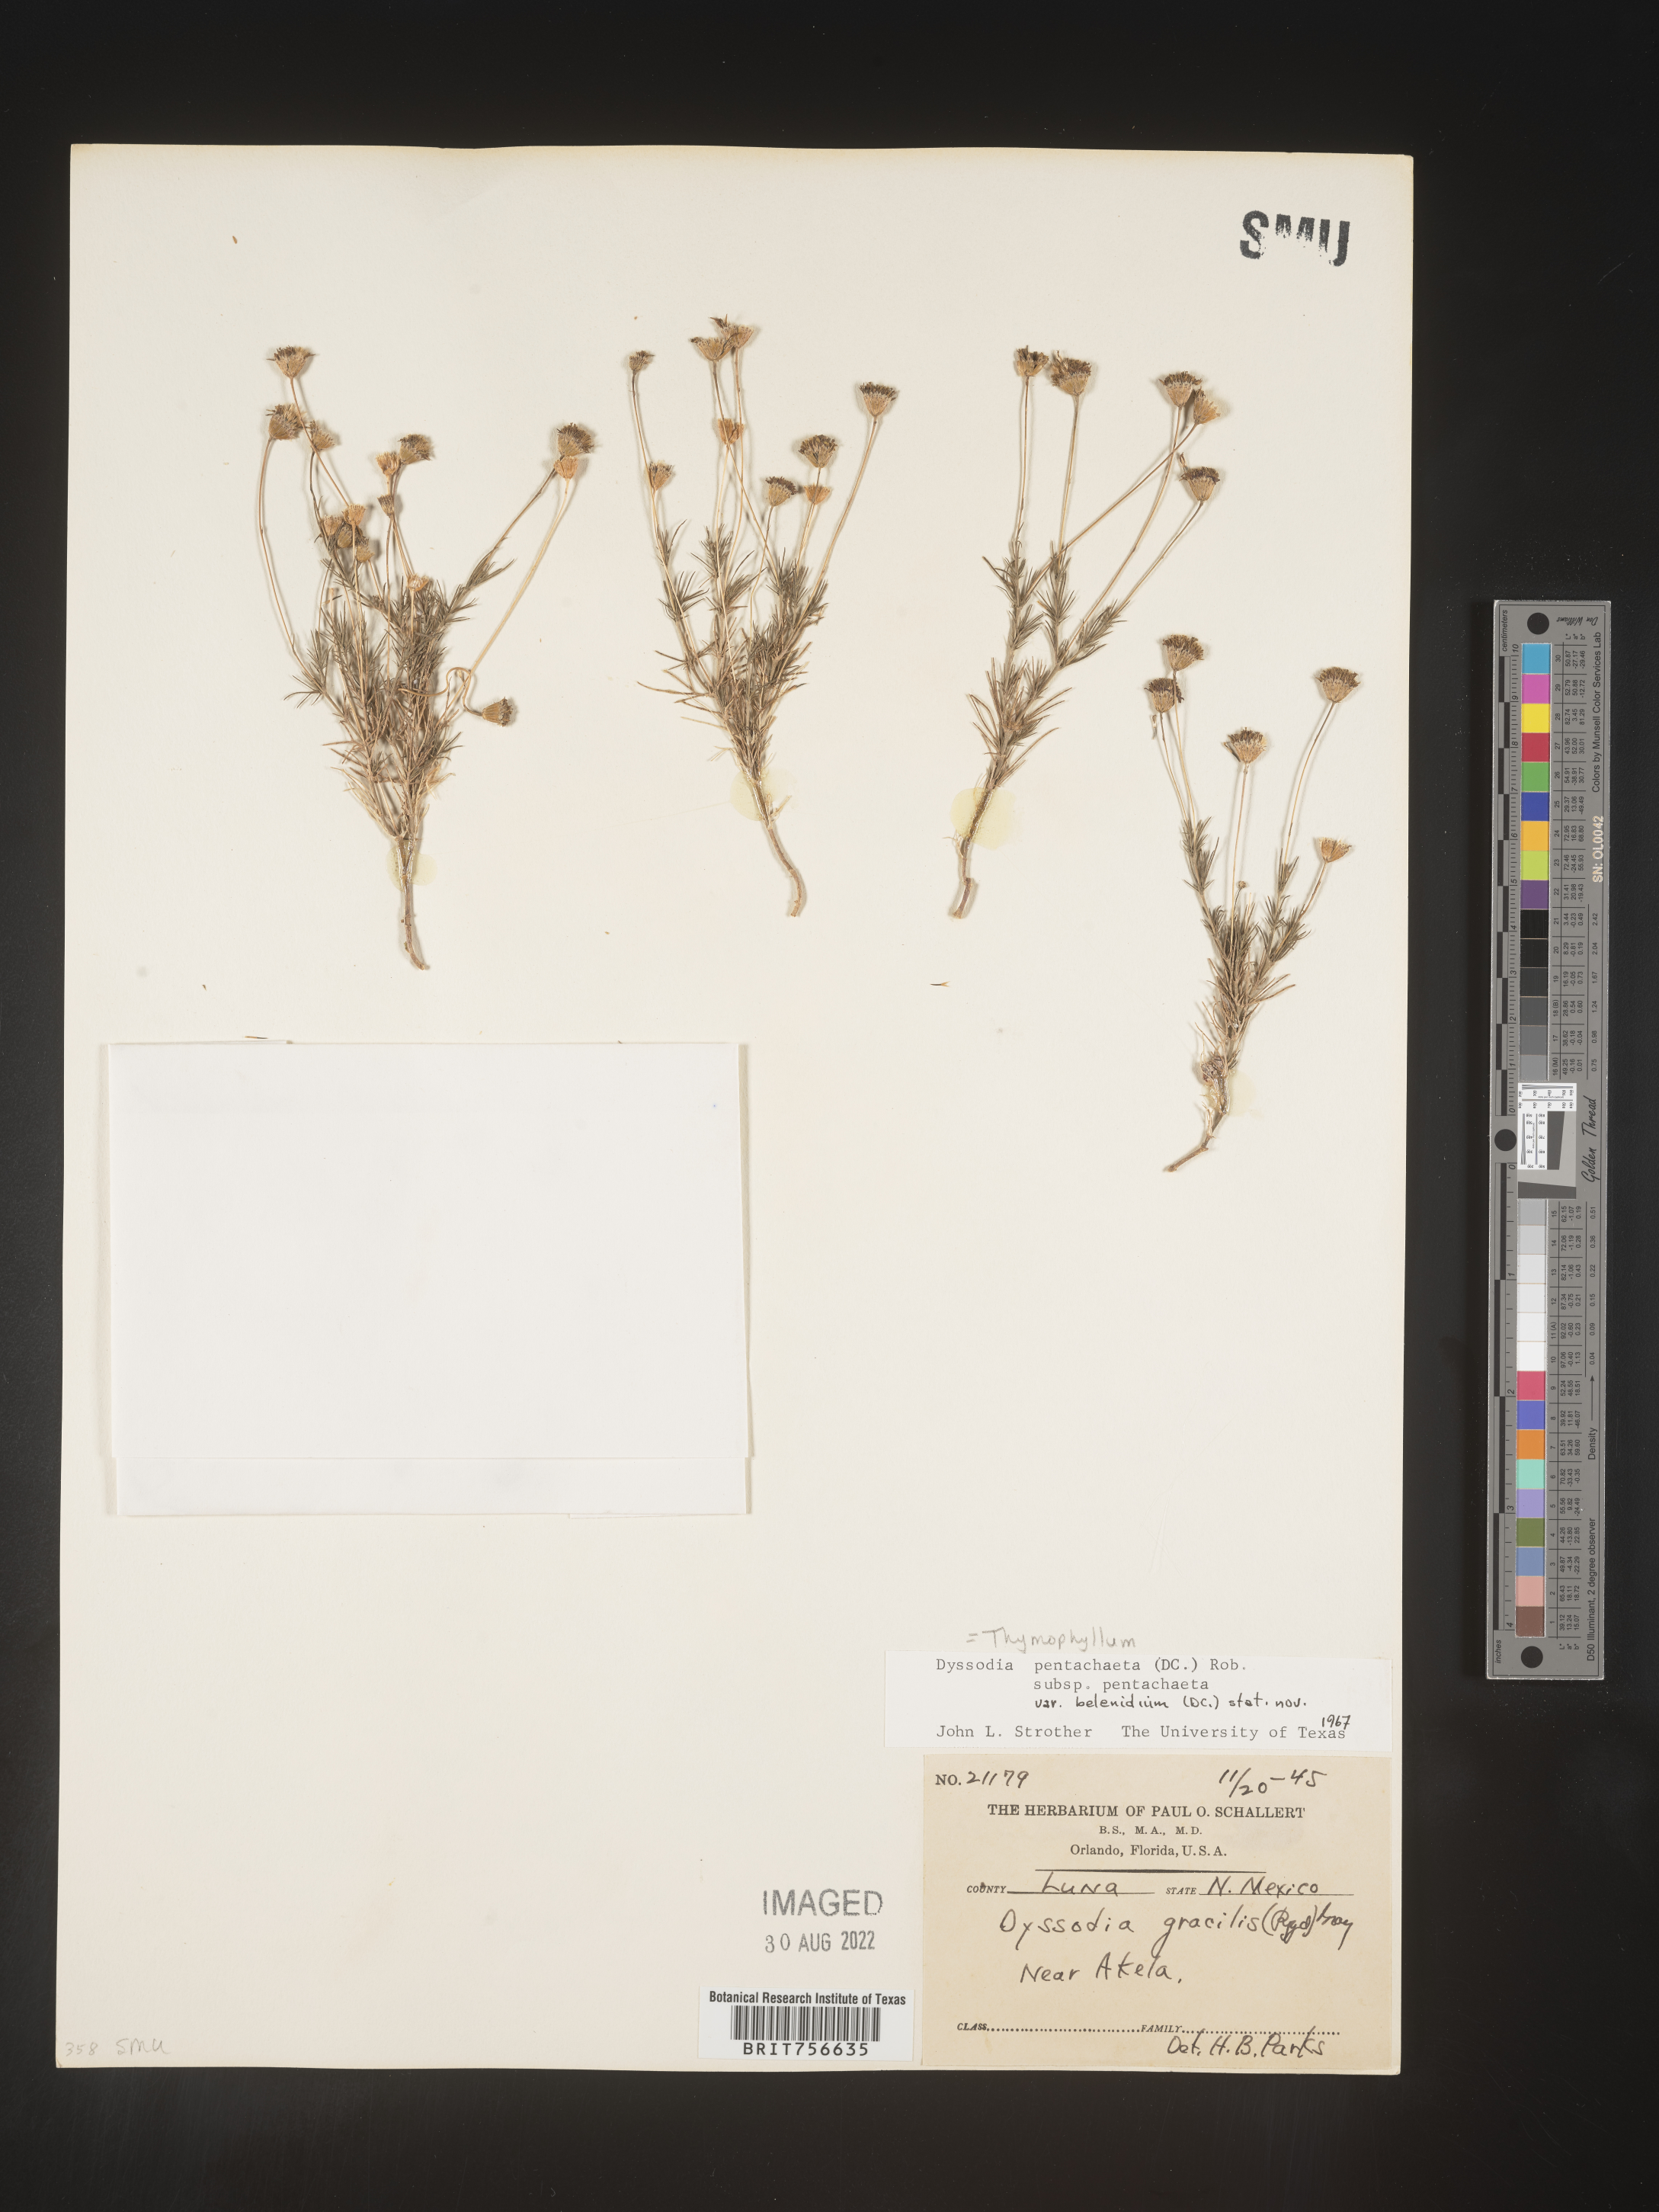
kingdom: Plantae
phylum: Tracheophyta
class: Magnoliopsida
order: Asterales
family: Asteraceae
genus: Thymophylla
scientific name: Thymophylla pentachaeta
